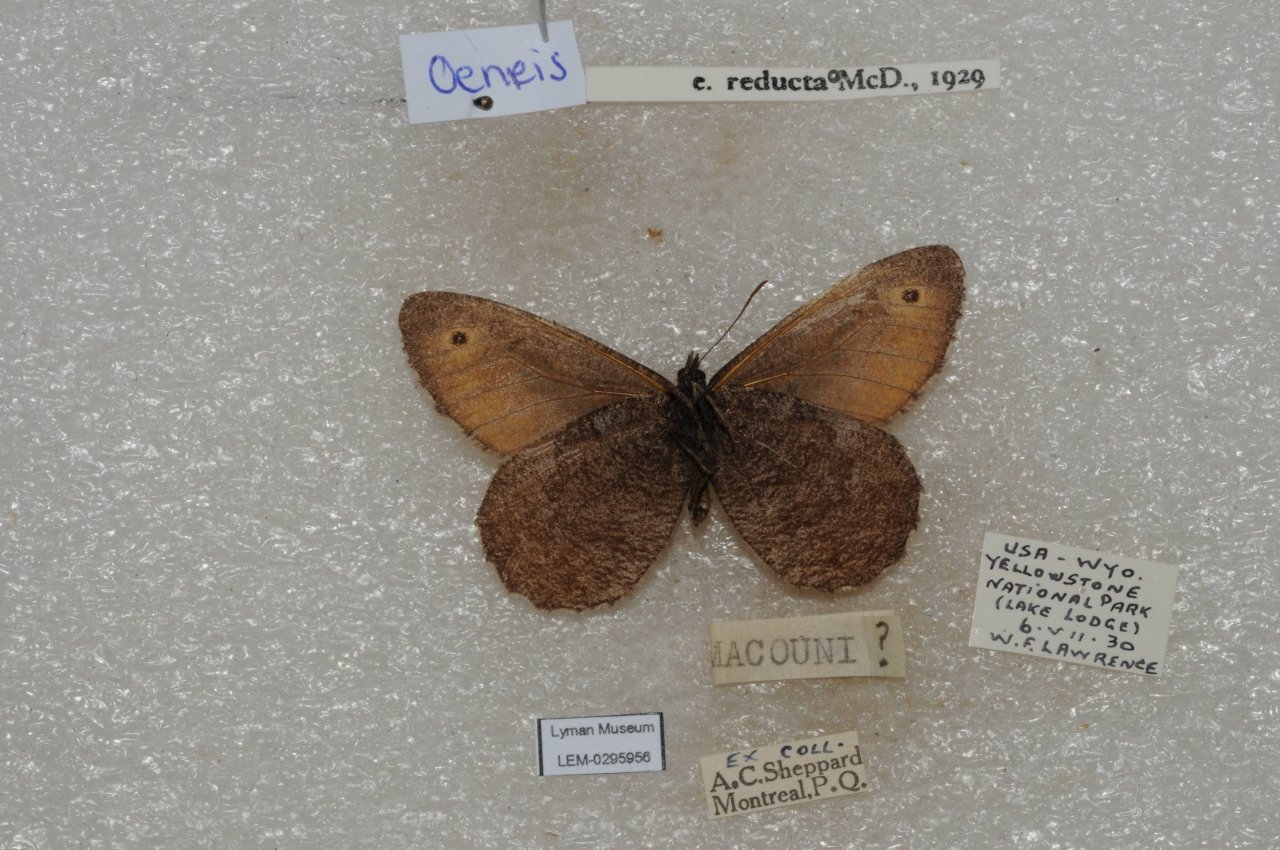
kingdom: Animalia
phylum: Arthropoda
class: Insecta
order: Lepidoptera
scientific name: Lepidoptera
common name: Butterflies
